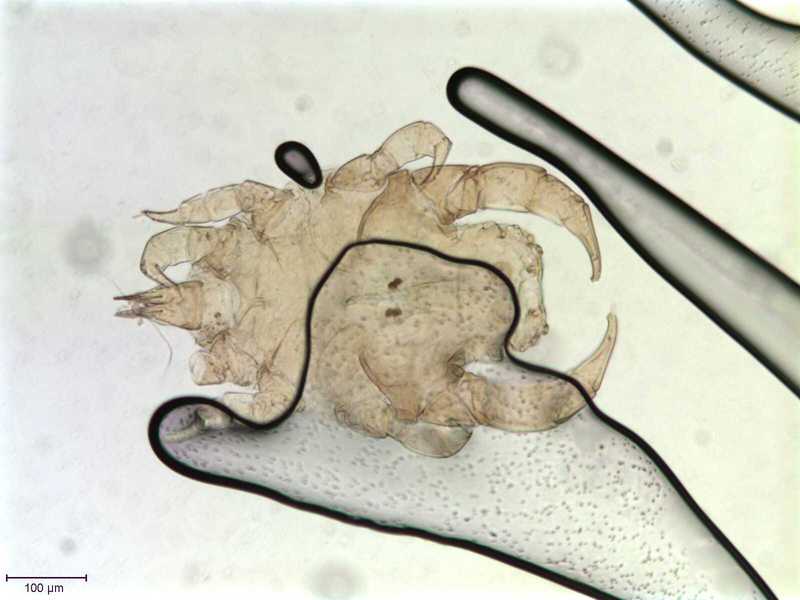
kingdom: Animalia
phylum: Arthropoda
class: Arachnida
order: Sarcoptiformes
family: Canestriniidae
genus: Canestrinia
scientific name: Canestrinia
